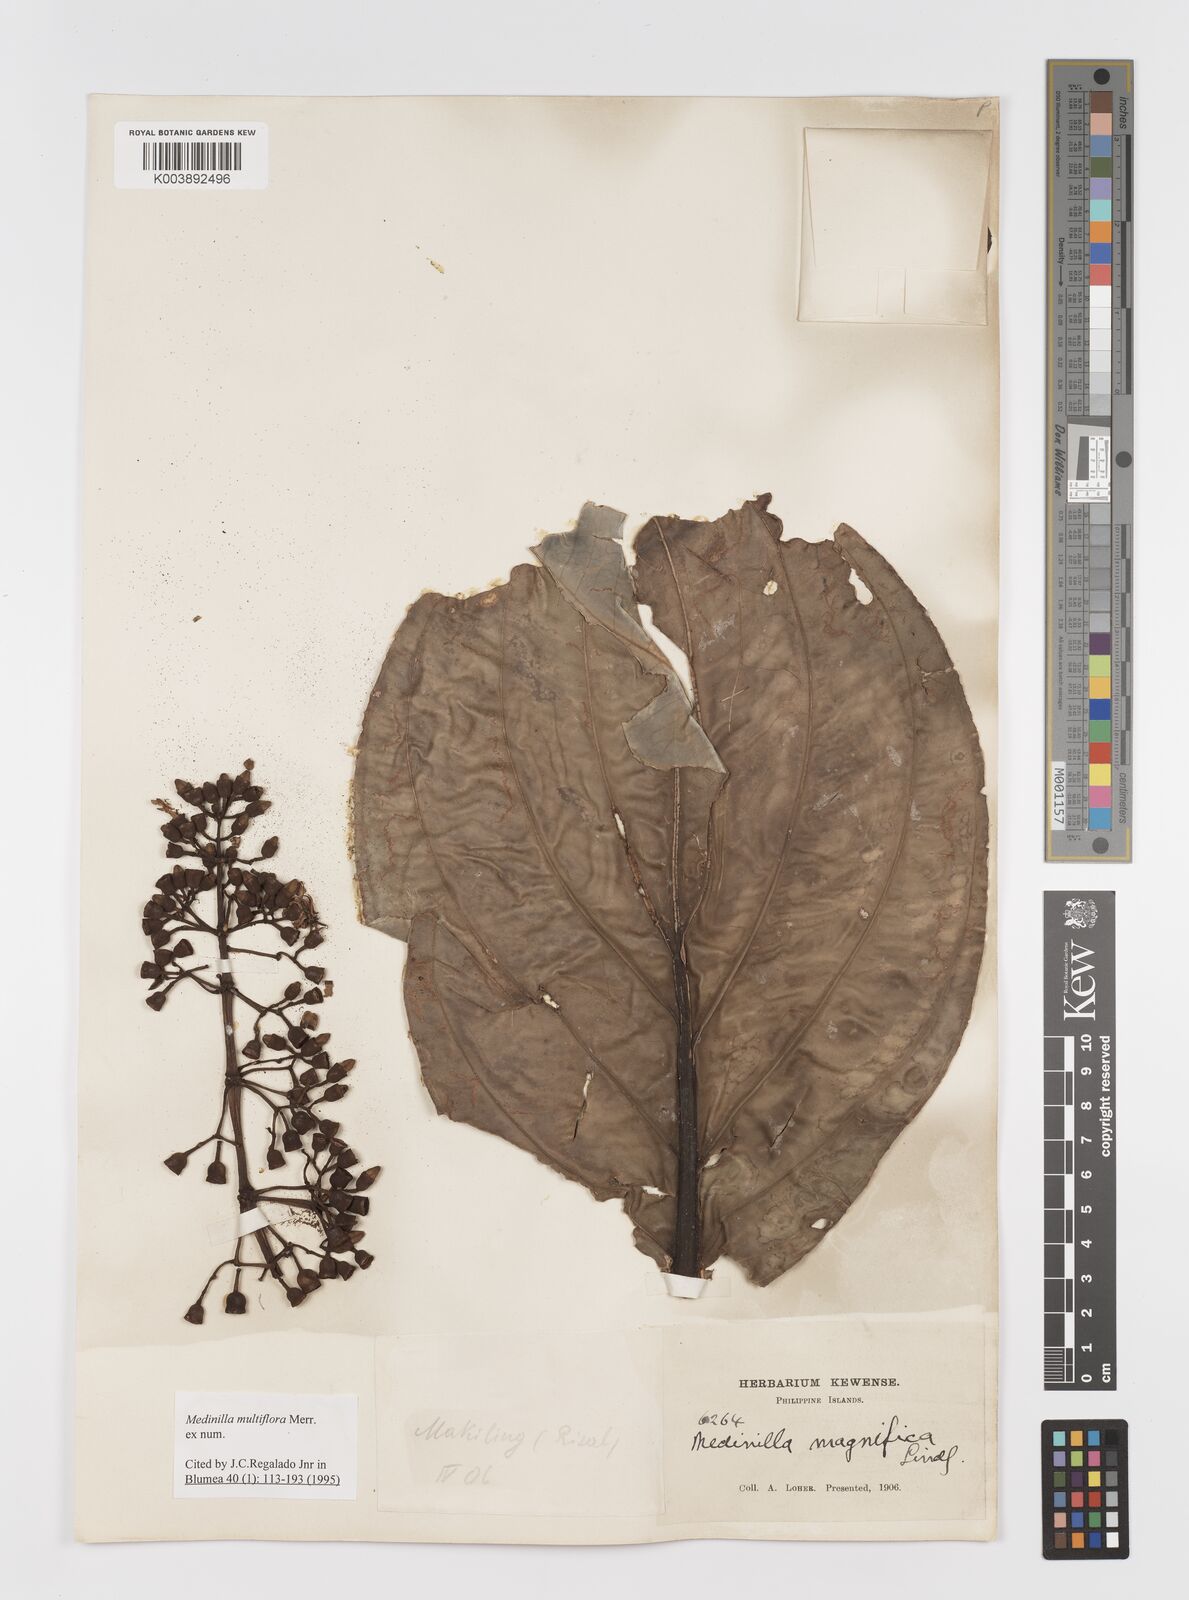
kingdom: Plantae
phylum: Tracheophyta
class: Magnoliopsida
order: Myrtales
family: Melastomataceae
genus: Medinilla
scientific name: Medinilla multiflora
